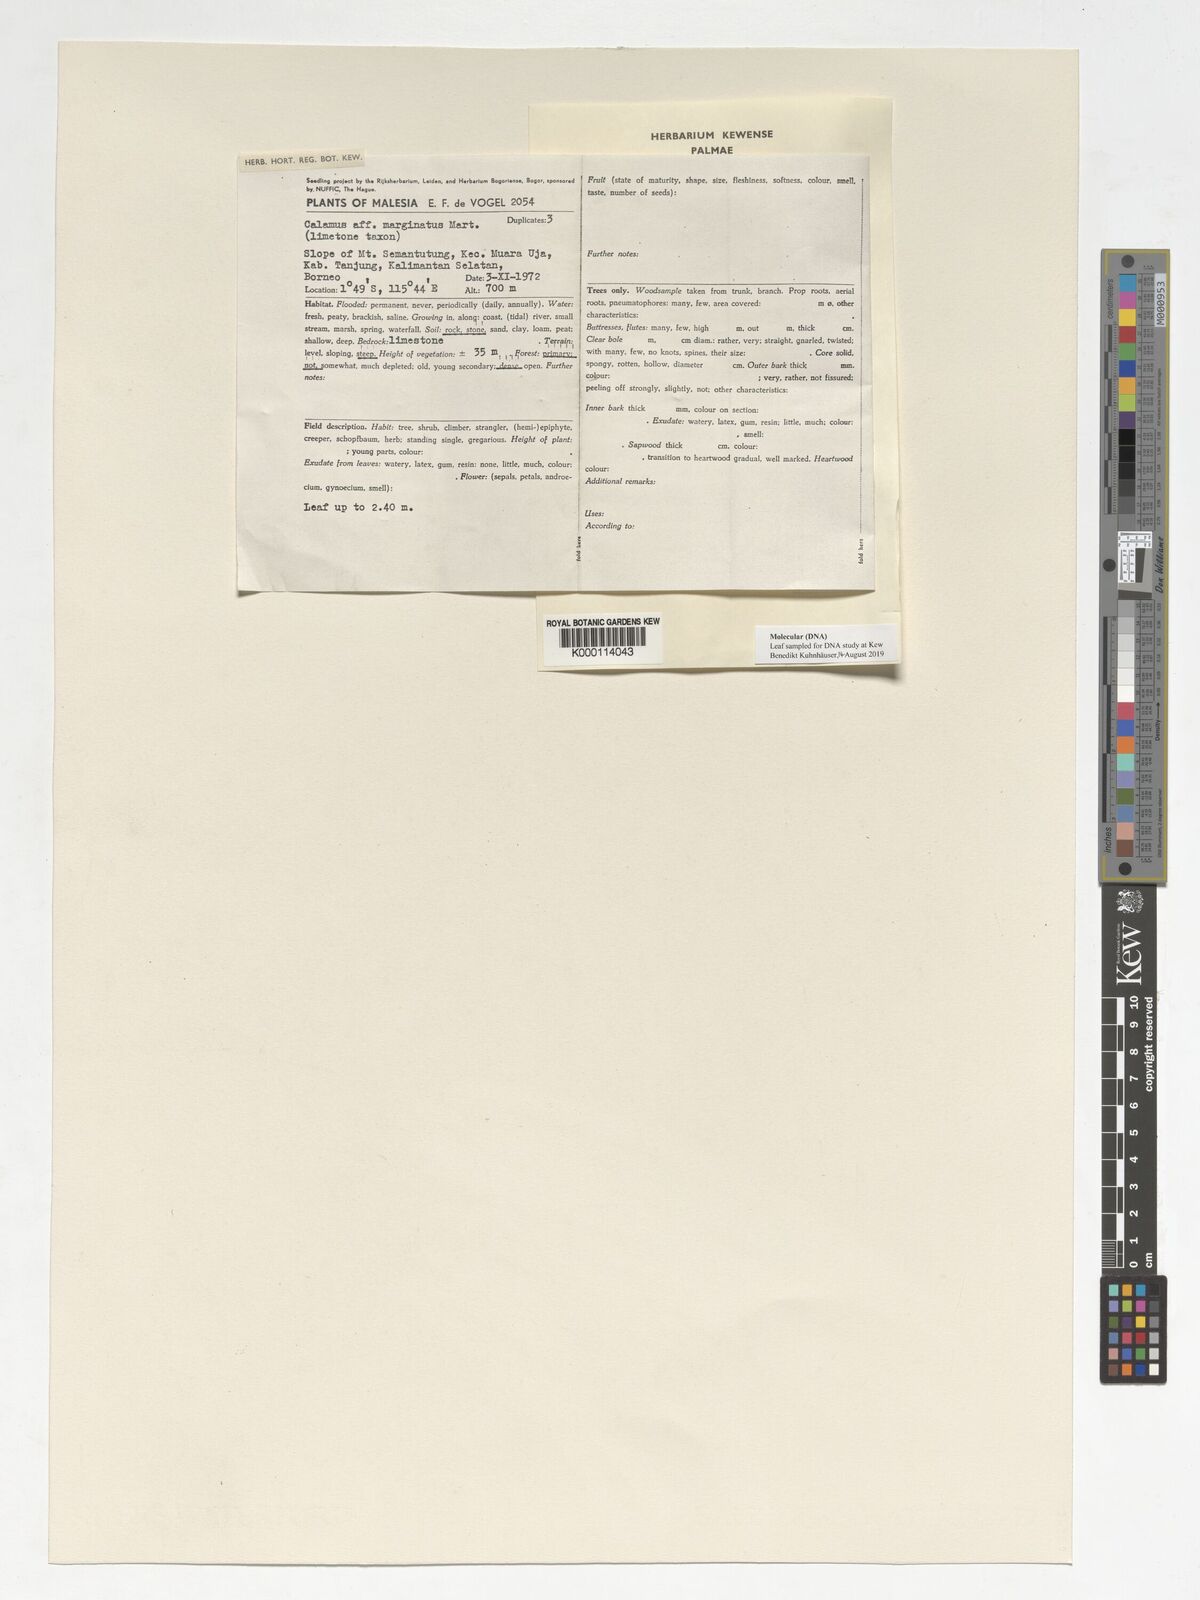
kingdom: Plantae
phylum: Tracheophyta
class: Liliopsida
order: Arecales
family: Arecaceae
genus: Calamus
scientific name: Calamus
